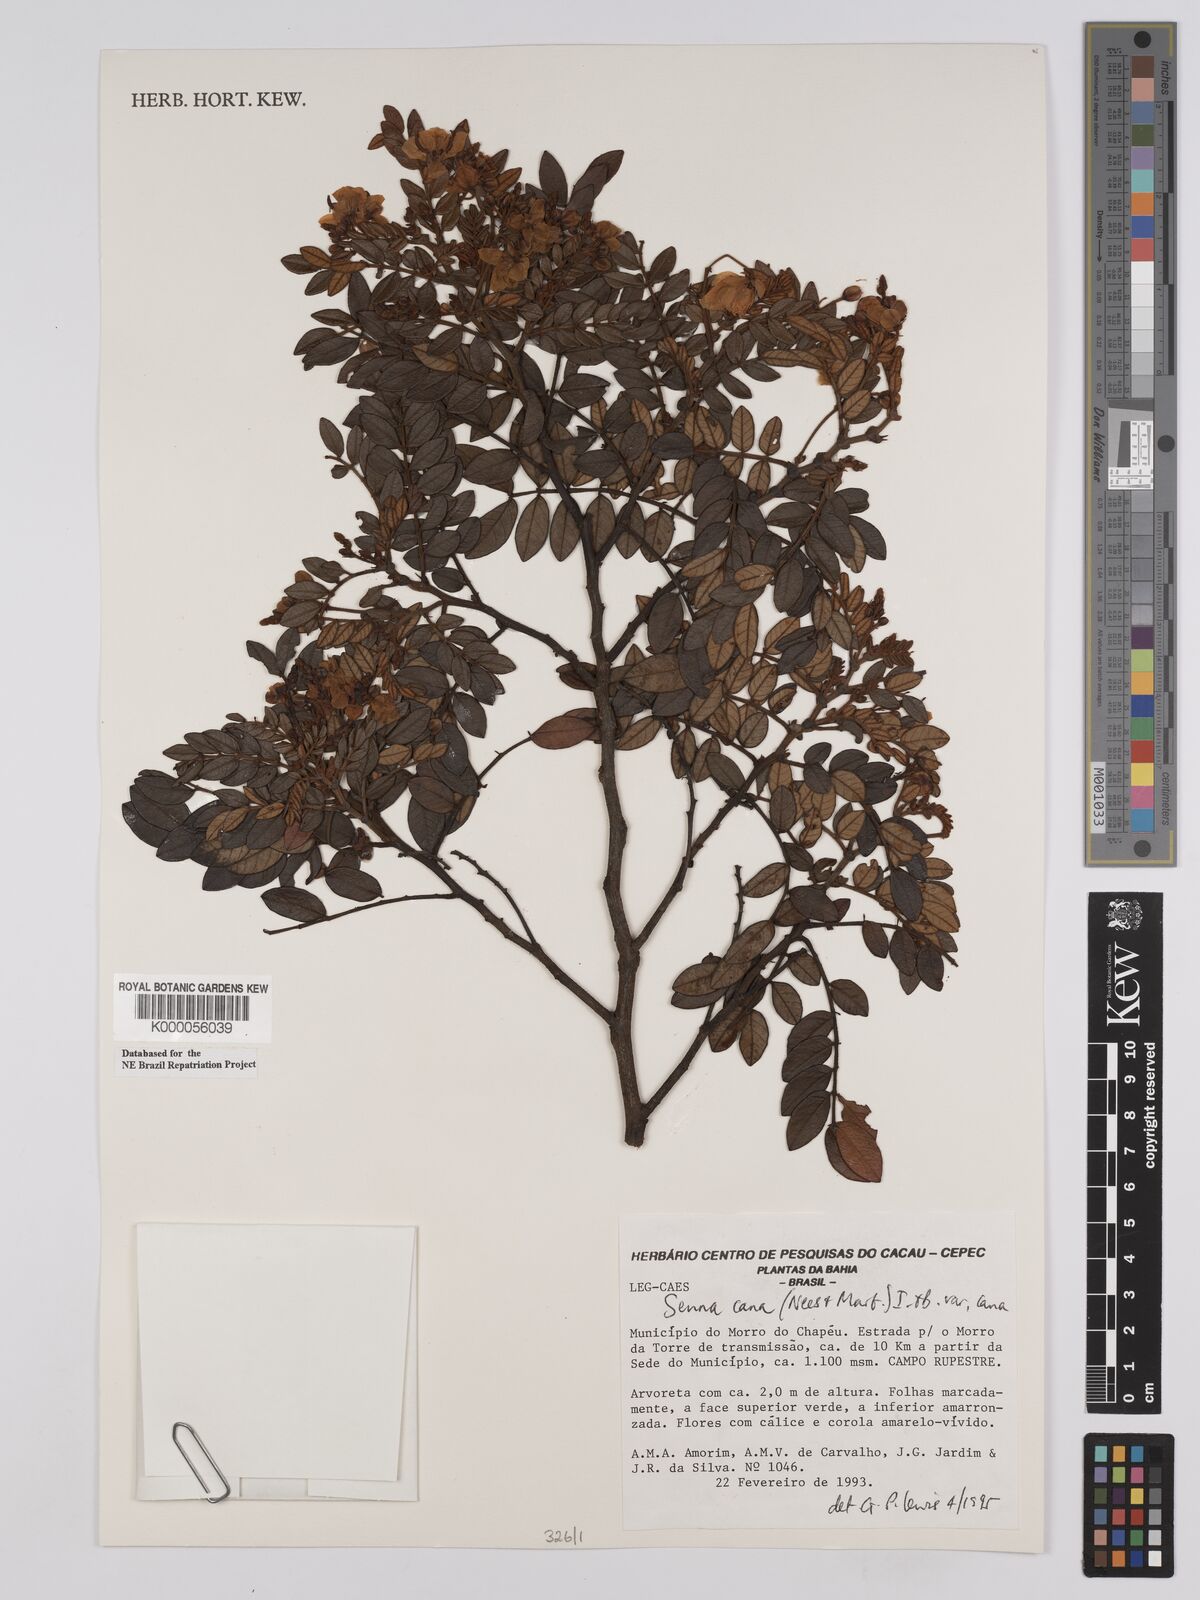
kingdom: Plantae
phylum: Tracheophyta
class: Magnoliopsida
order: Fabales
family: Fabaceae
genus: Senna
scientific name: Senna cana
